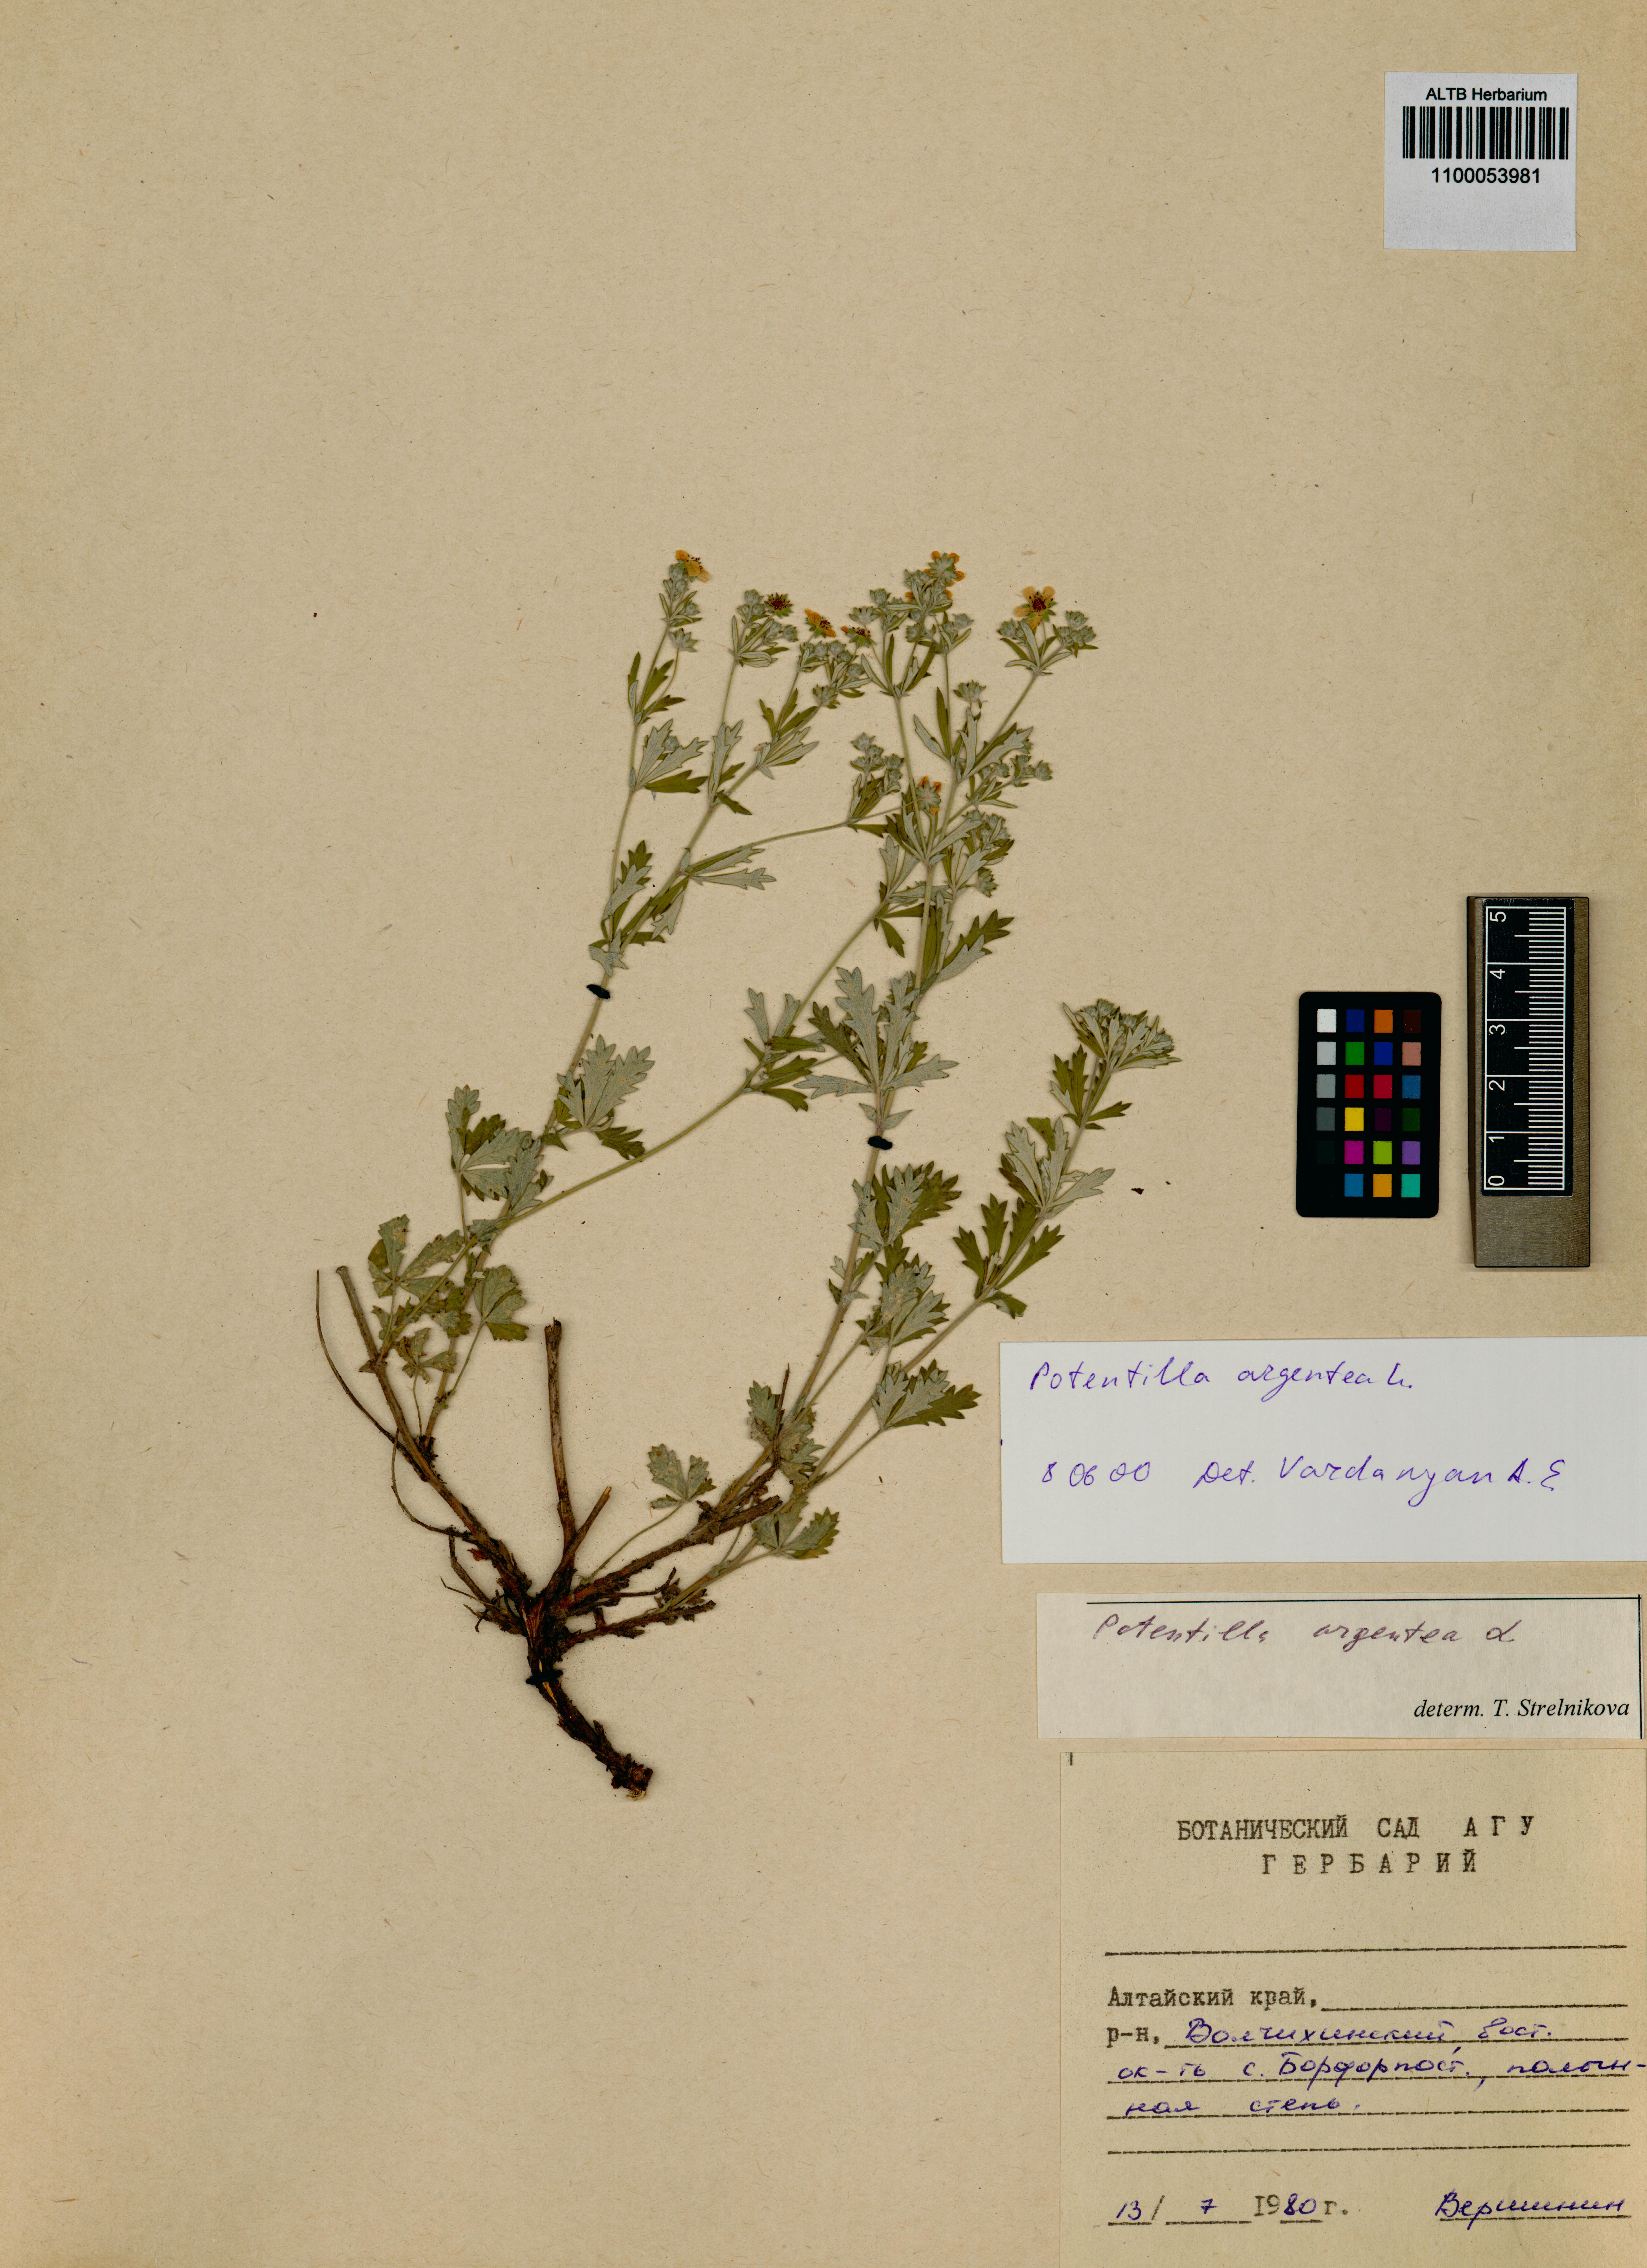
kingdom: Plantae
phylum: Tracheophyta
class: Magnoliopsida
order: Rosales
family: Rosaceae
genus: Potentilla
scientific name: Potentilla argentea
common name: Hoary cinquefoil
